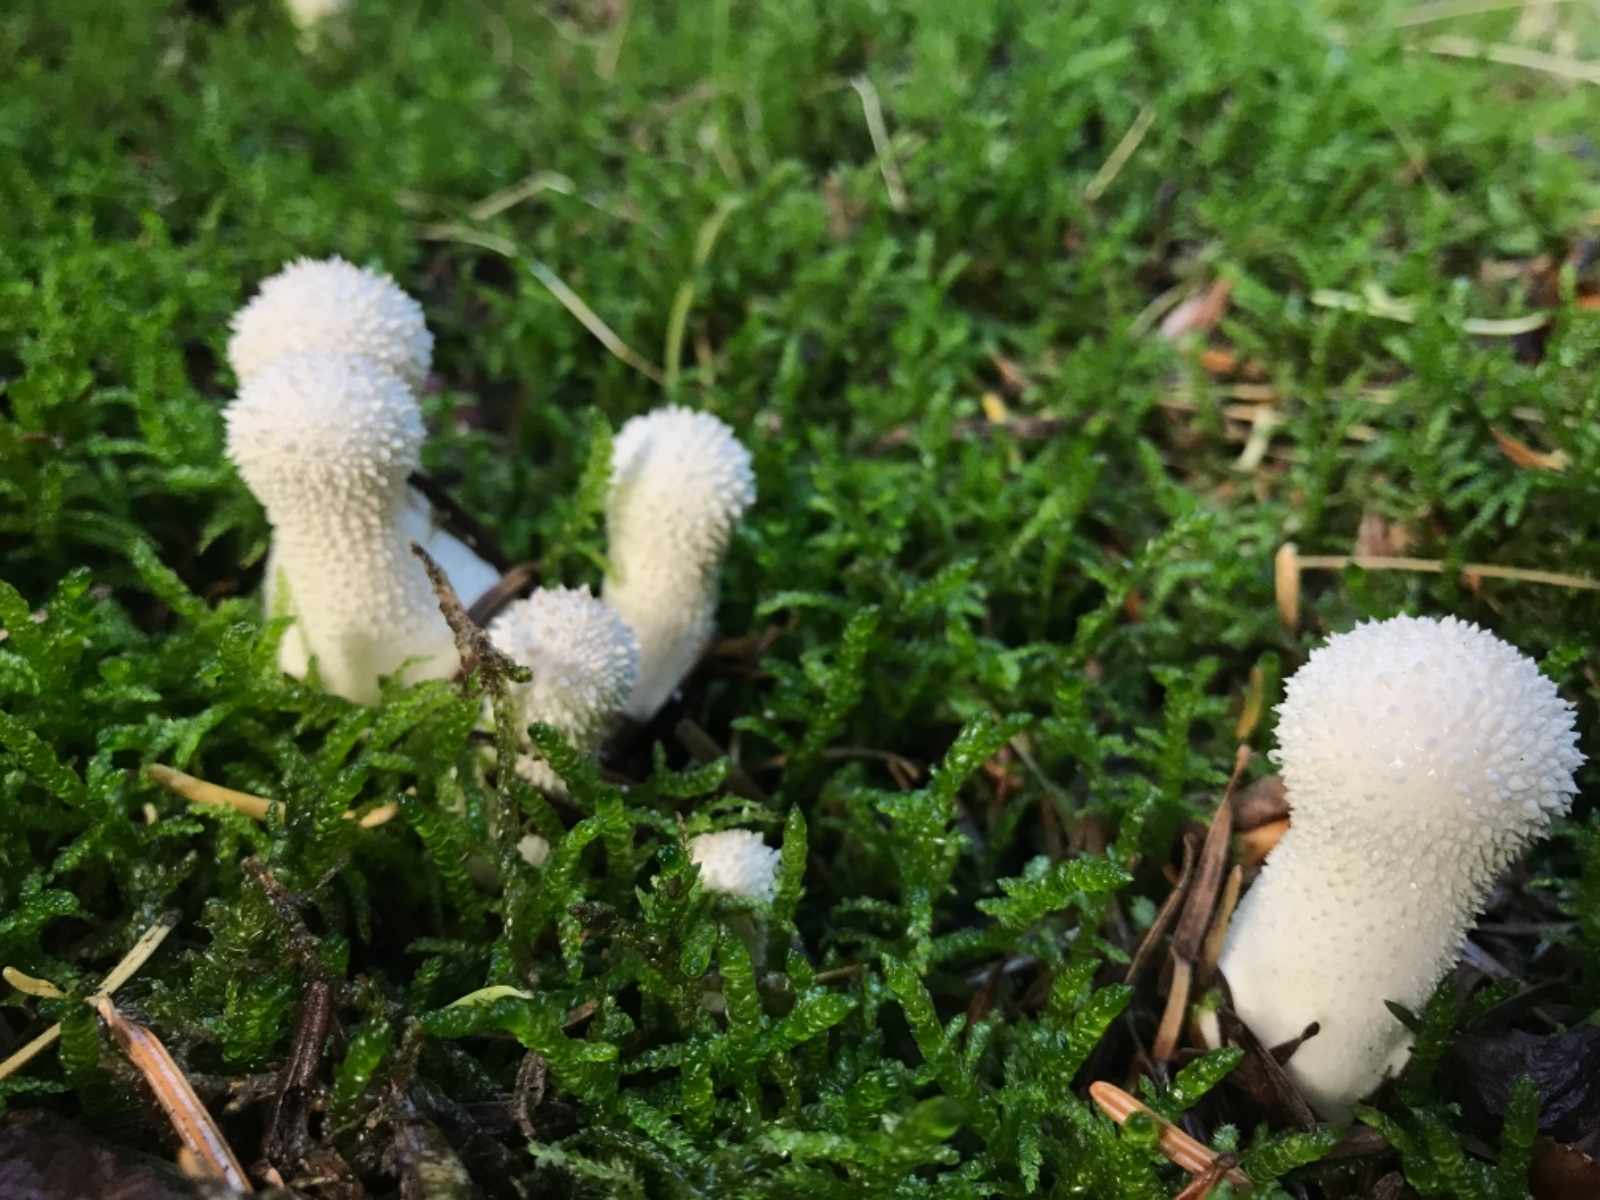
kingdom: Fungi
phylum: Basidiomycota
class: Agaricomycetes
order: Agaricales
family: Lycoperdaceae
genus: Lycoperdon
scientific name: Lycoperdon perlatum
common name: krystal-støvbold
